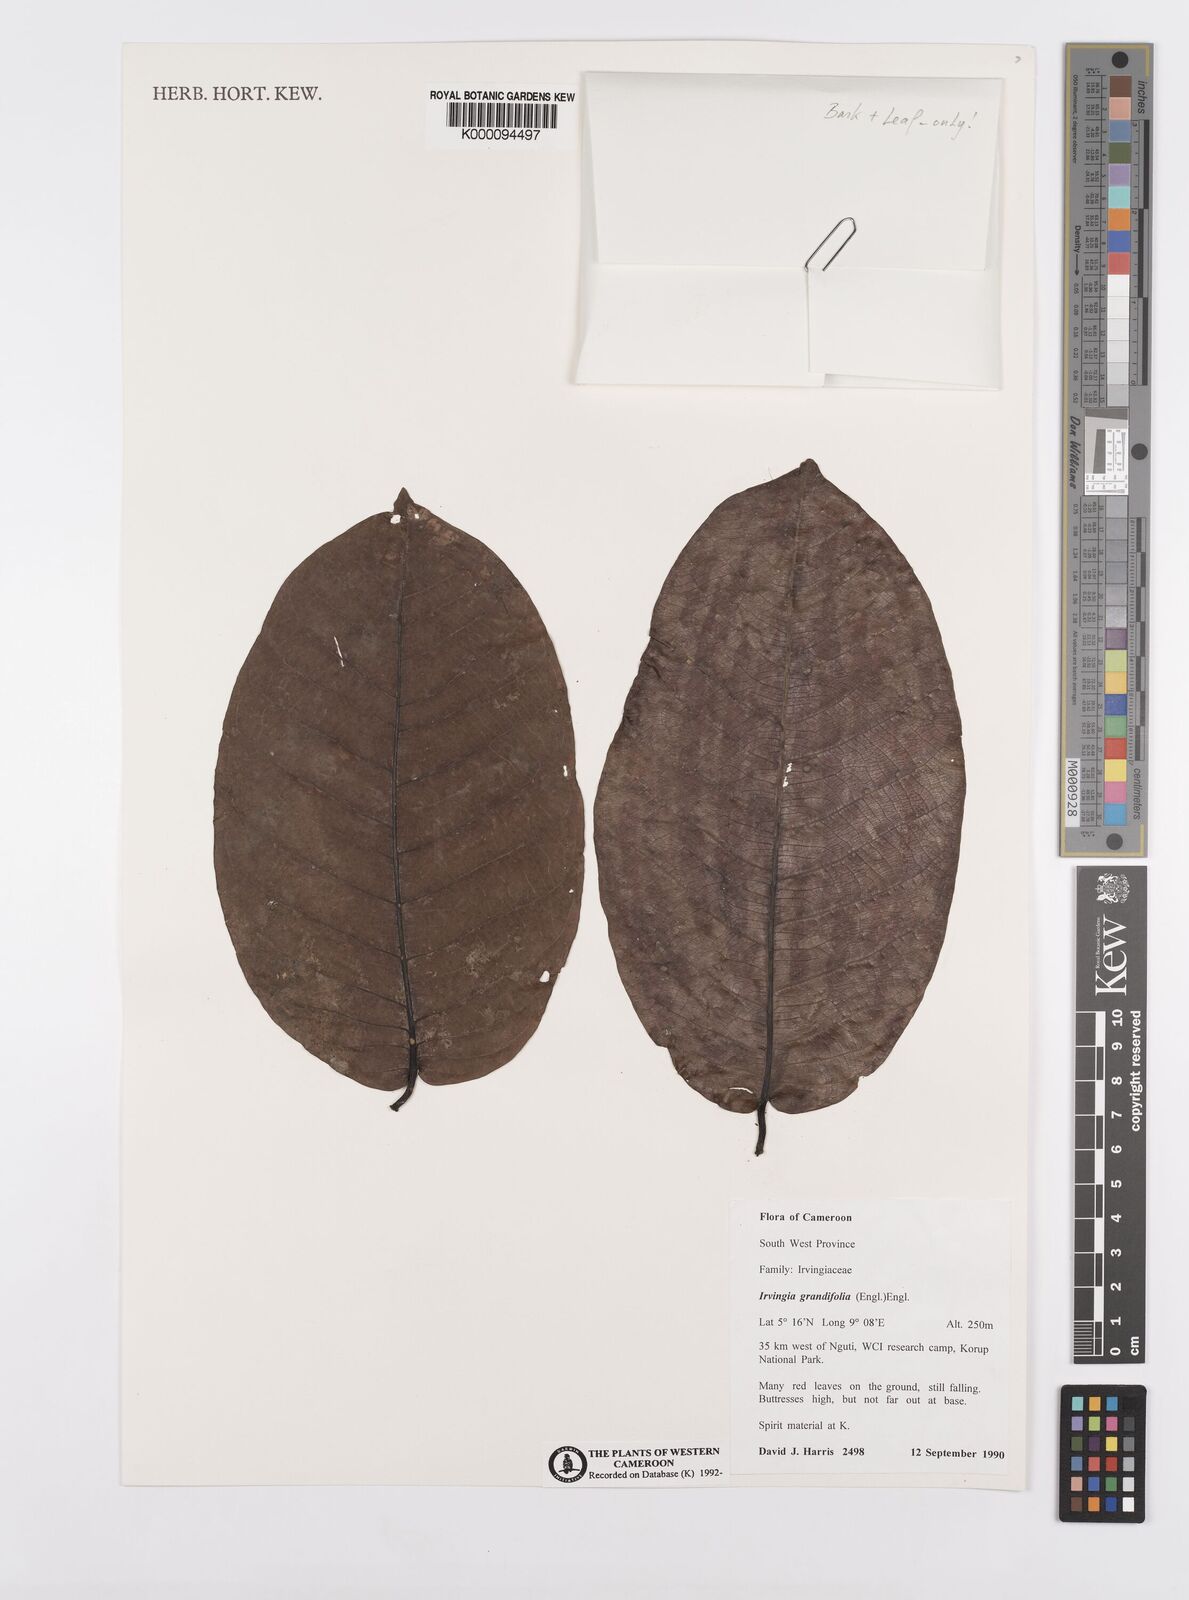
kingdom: Plantae
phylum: Tracheophyta
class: Magnoliopsida
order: Malpighiales
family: Irvingiaceae
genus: Irvingia
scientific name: Irvingia grandifolia
